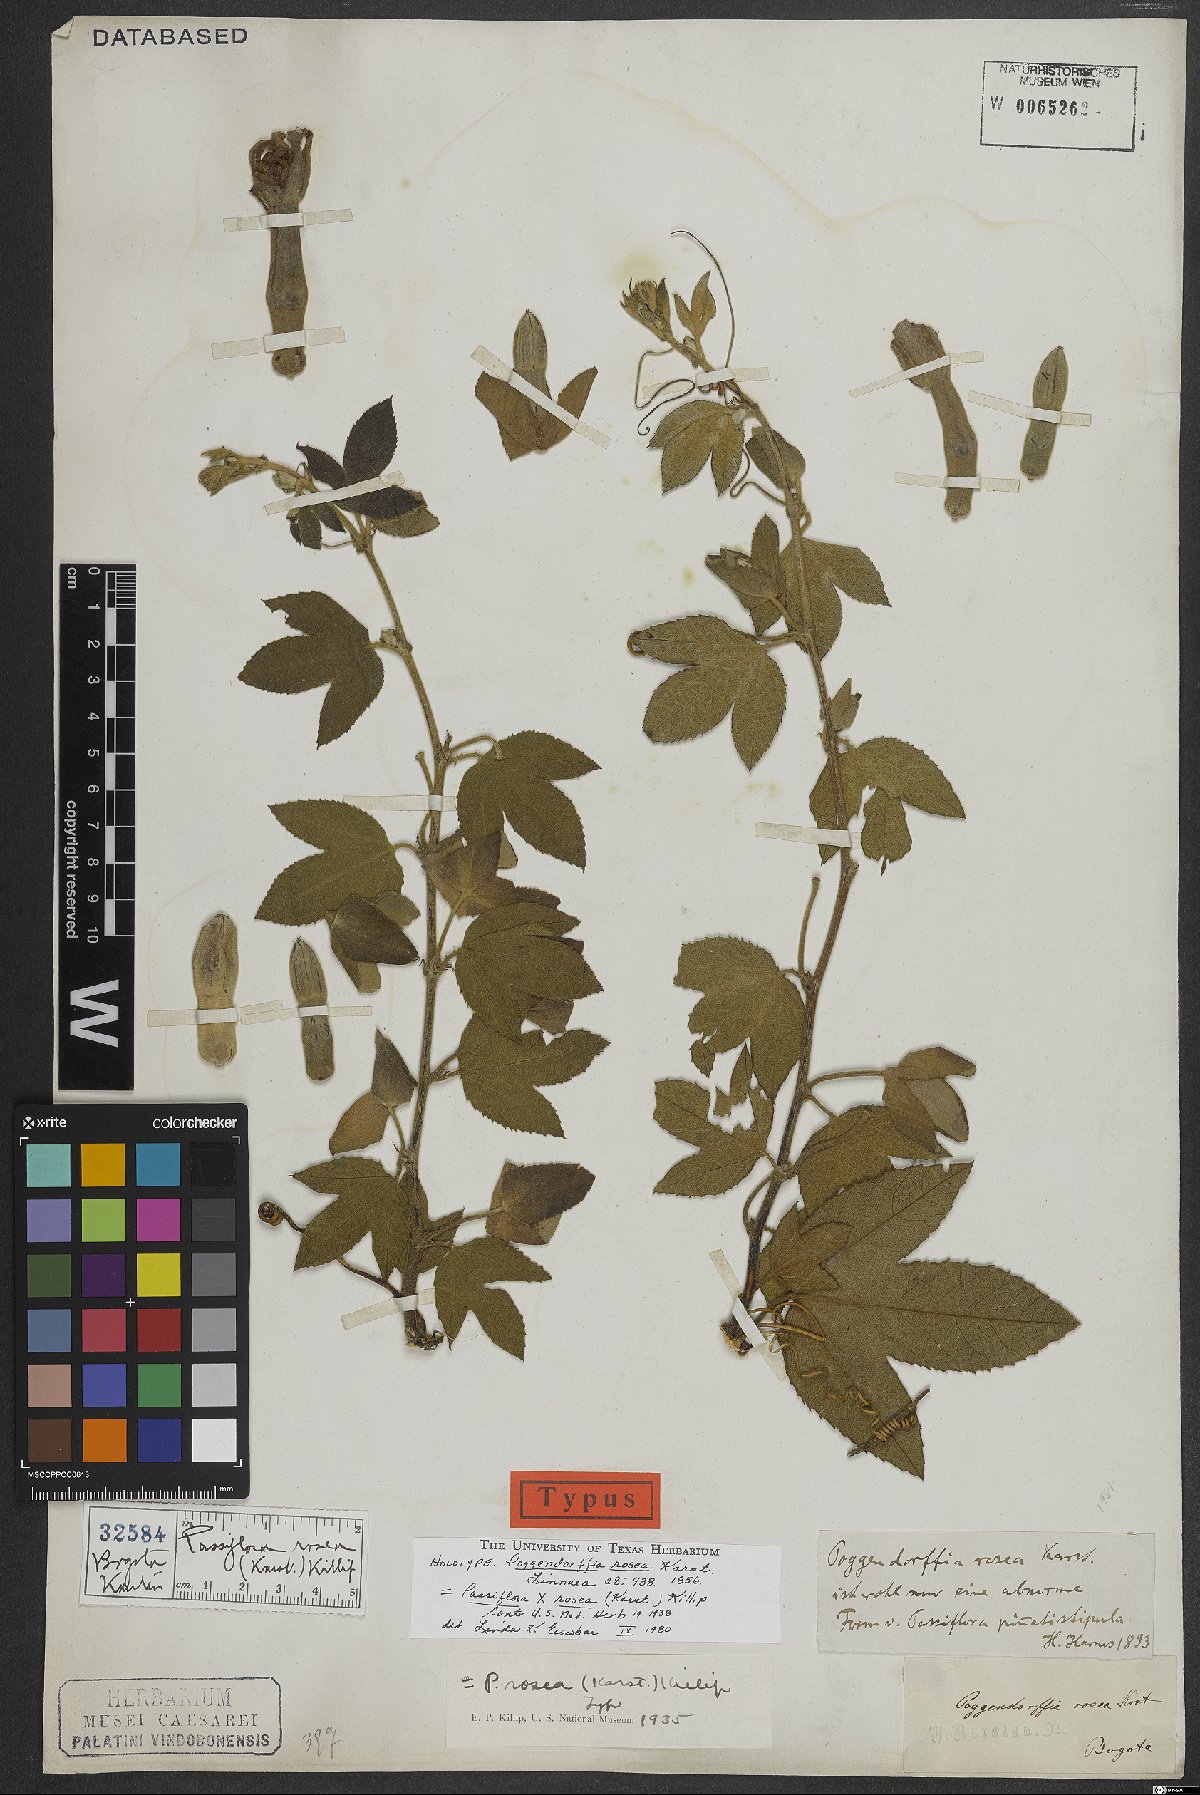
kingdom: Plantae
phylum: Tracheophyta
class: Magnoliopsida
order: Malpighiales
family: Passifloraceae
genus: Passiflora
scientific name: Passiflora rosea
